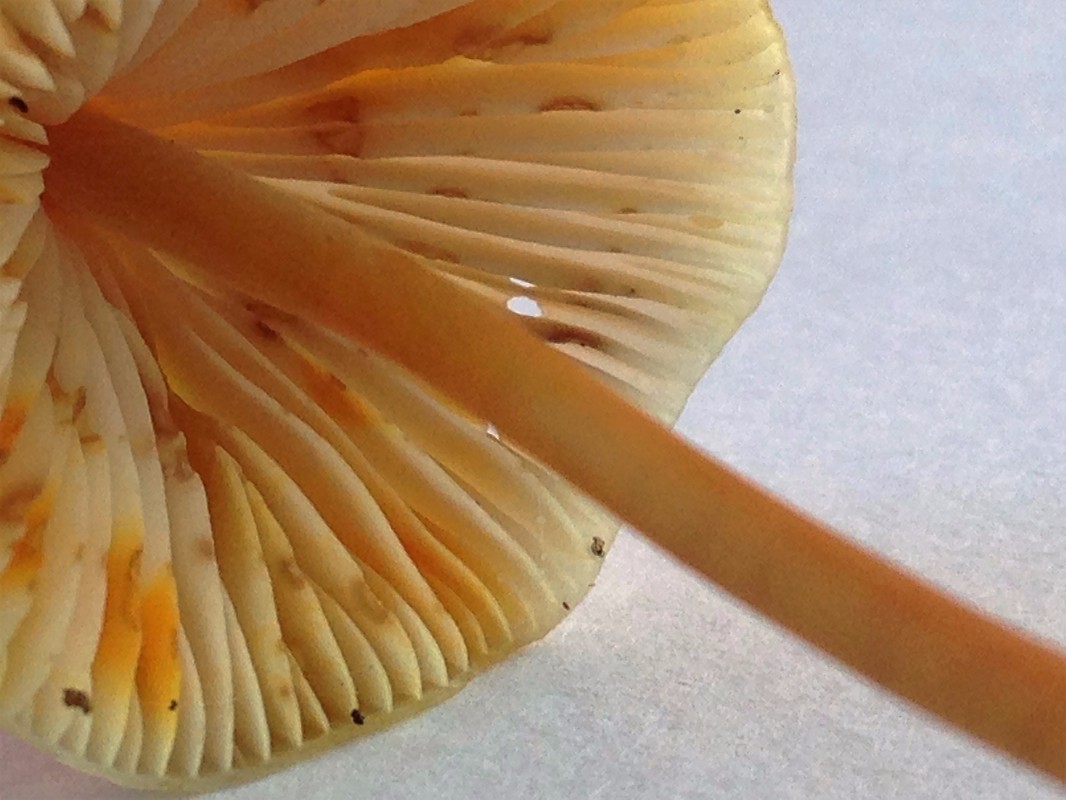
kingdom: Fungi
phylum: Basidiomycota
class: Agaricomycetes
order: Agaricales
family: Mycenaceae
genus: Mycena
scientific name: Mycena crocata
